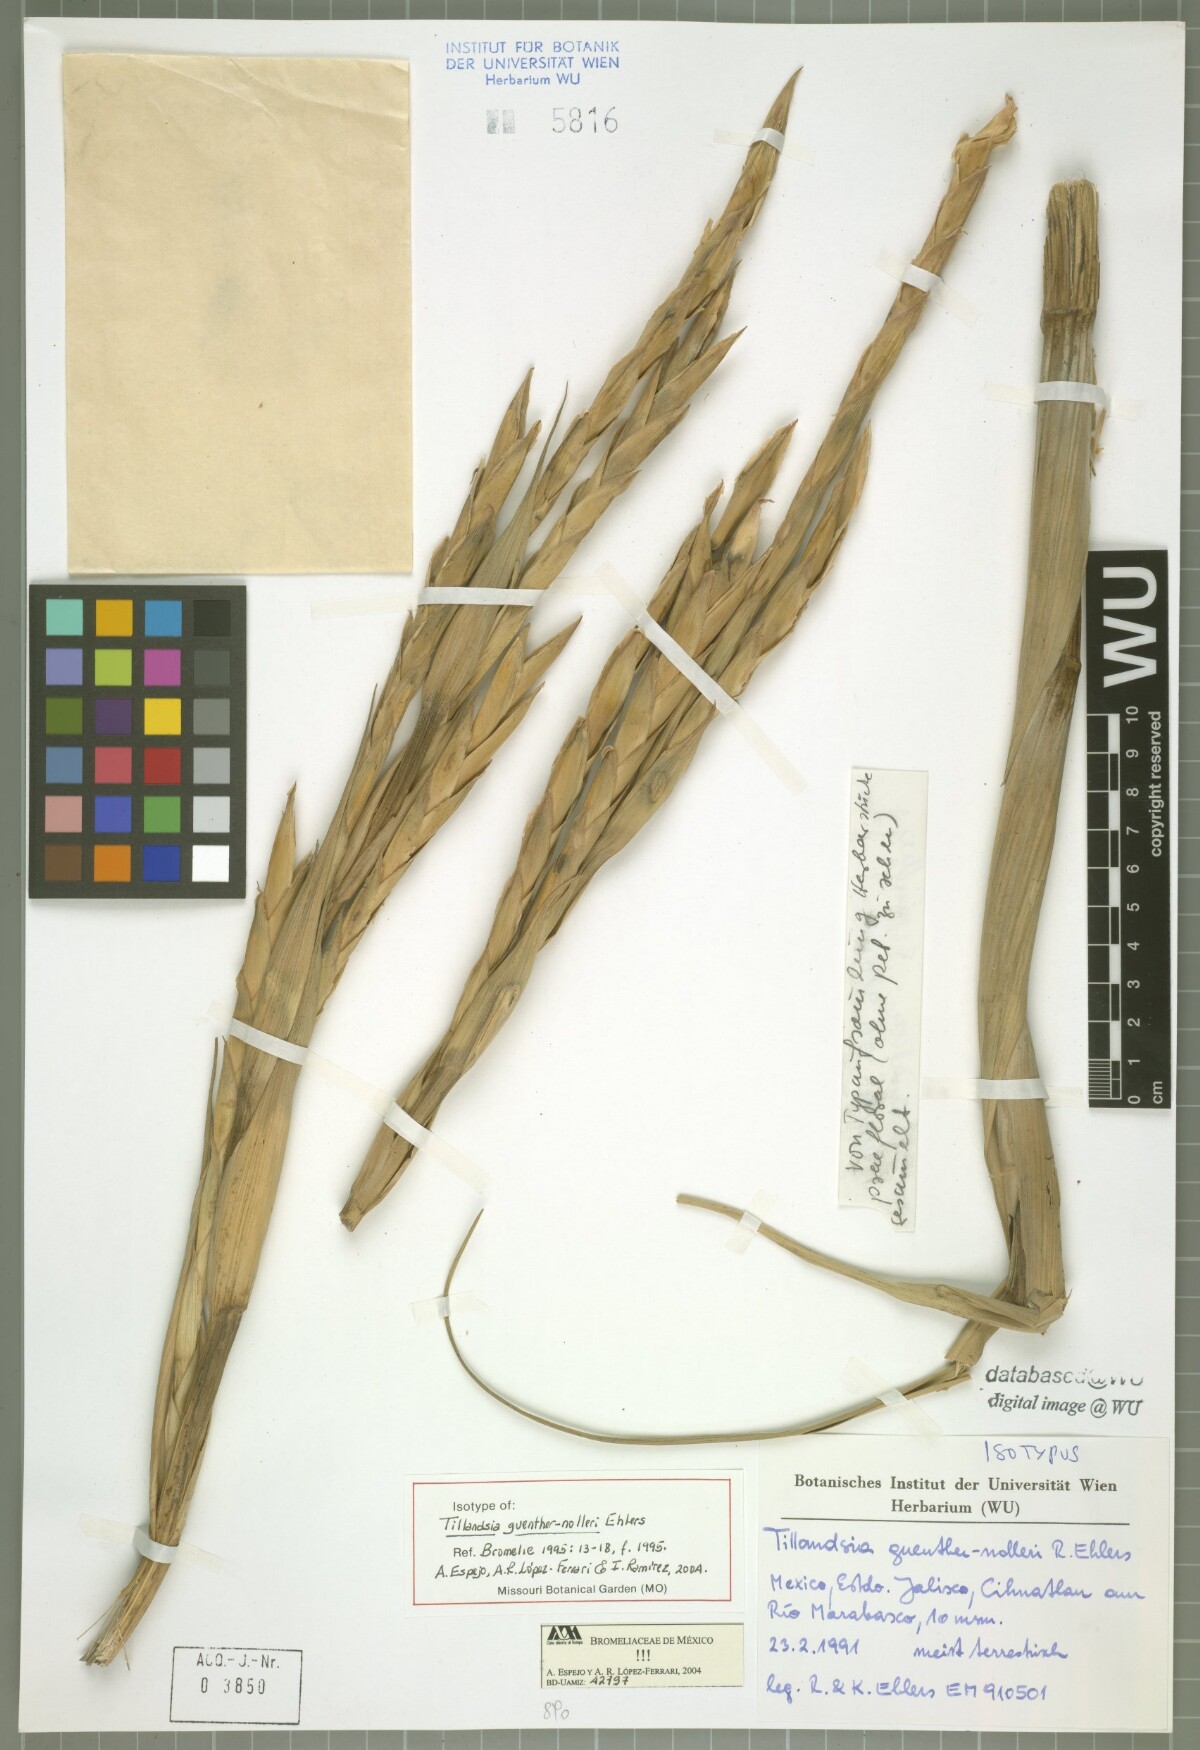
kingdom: Plantae
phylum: Tracheophyta
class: Liliopsida
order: Poales
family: Bromeliaceae
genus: Tillandsia
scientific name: Tillandsia guenther-nolleri
